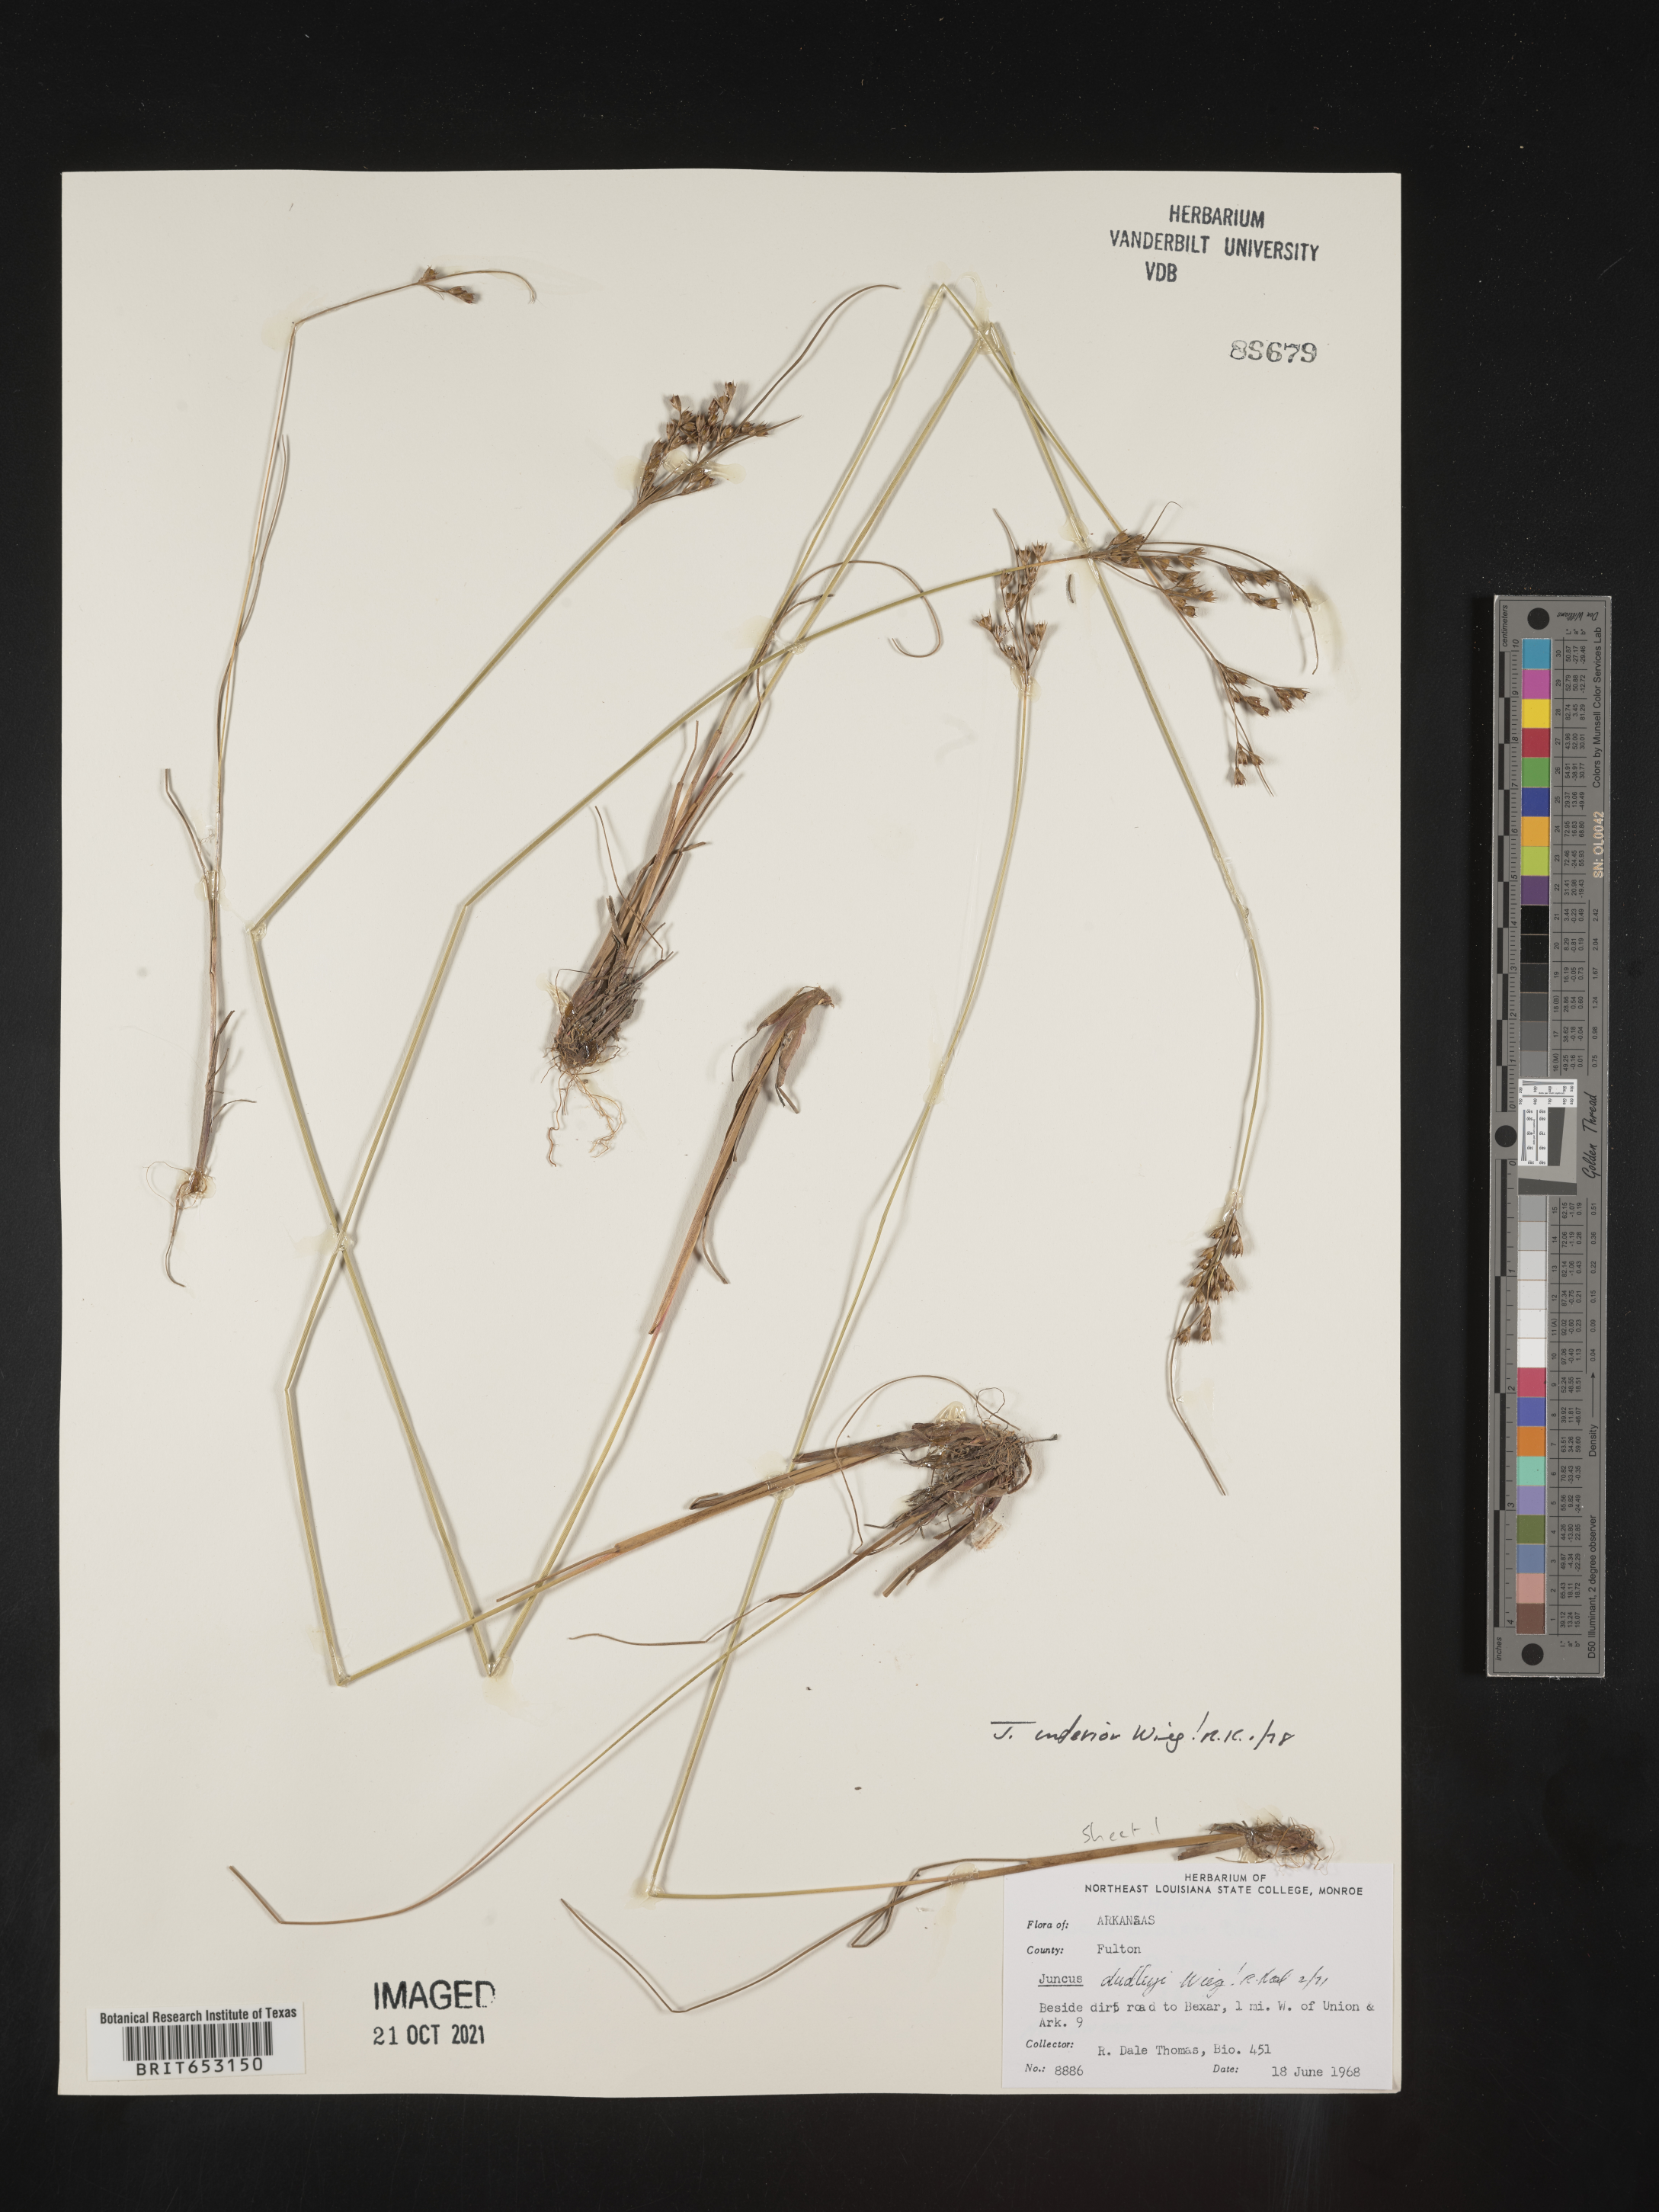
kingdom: Plantae
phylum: Tracheophyta
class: Liliopsida
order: Poales
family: Juncaceae
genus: Juncus
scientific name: Juncus interior
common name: Interior rush
